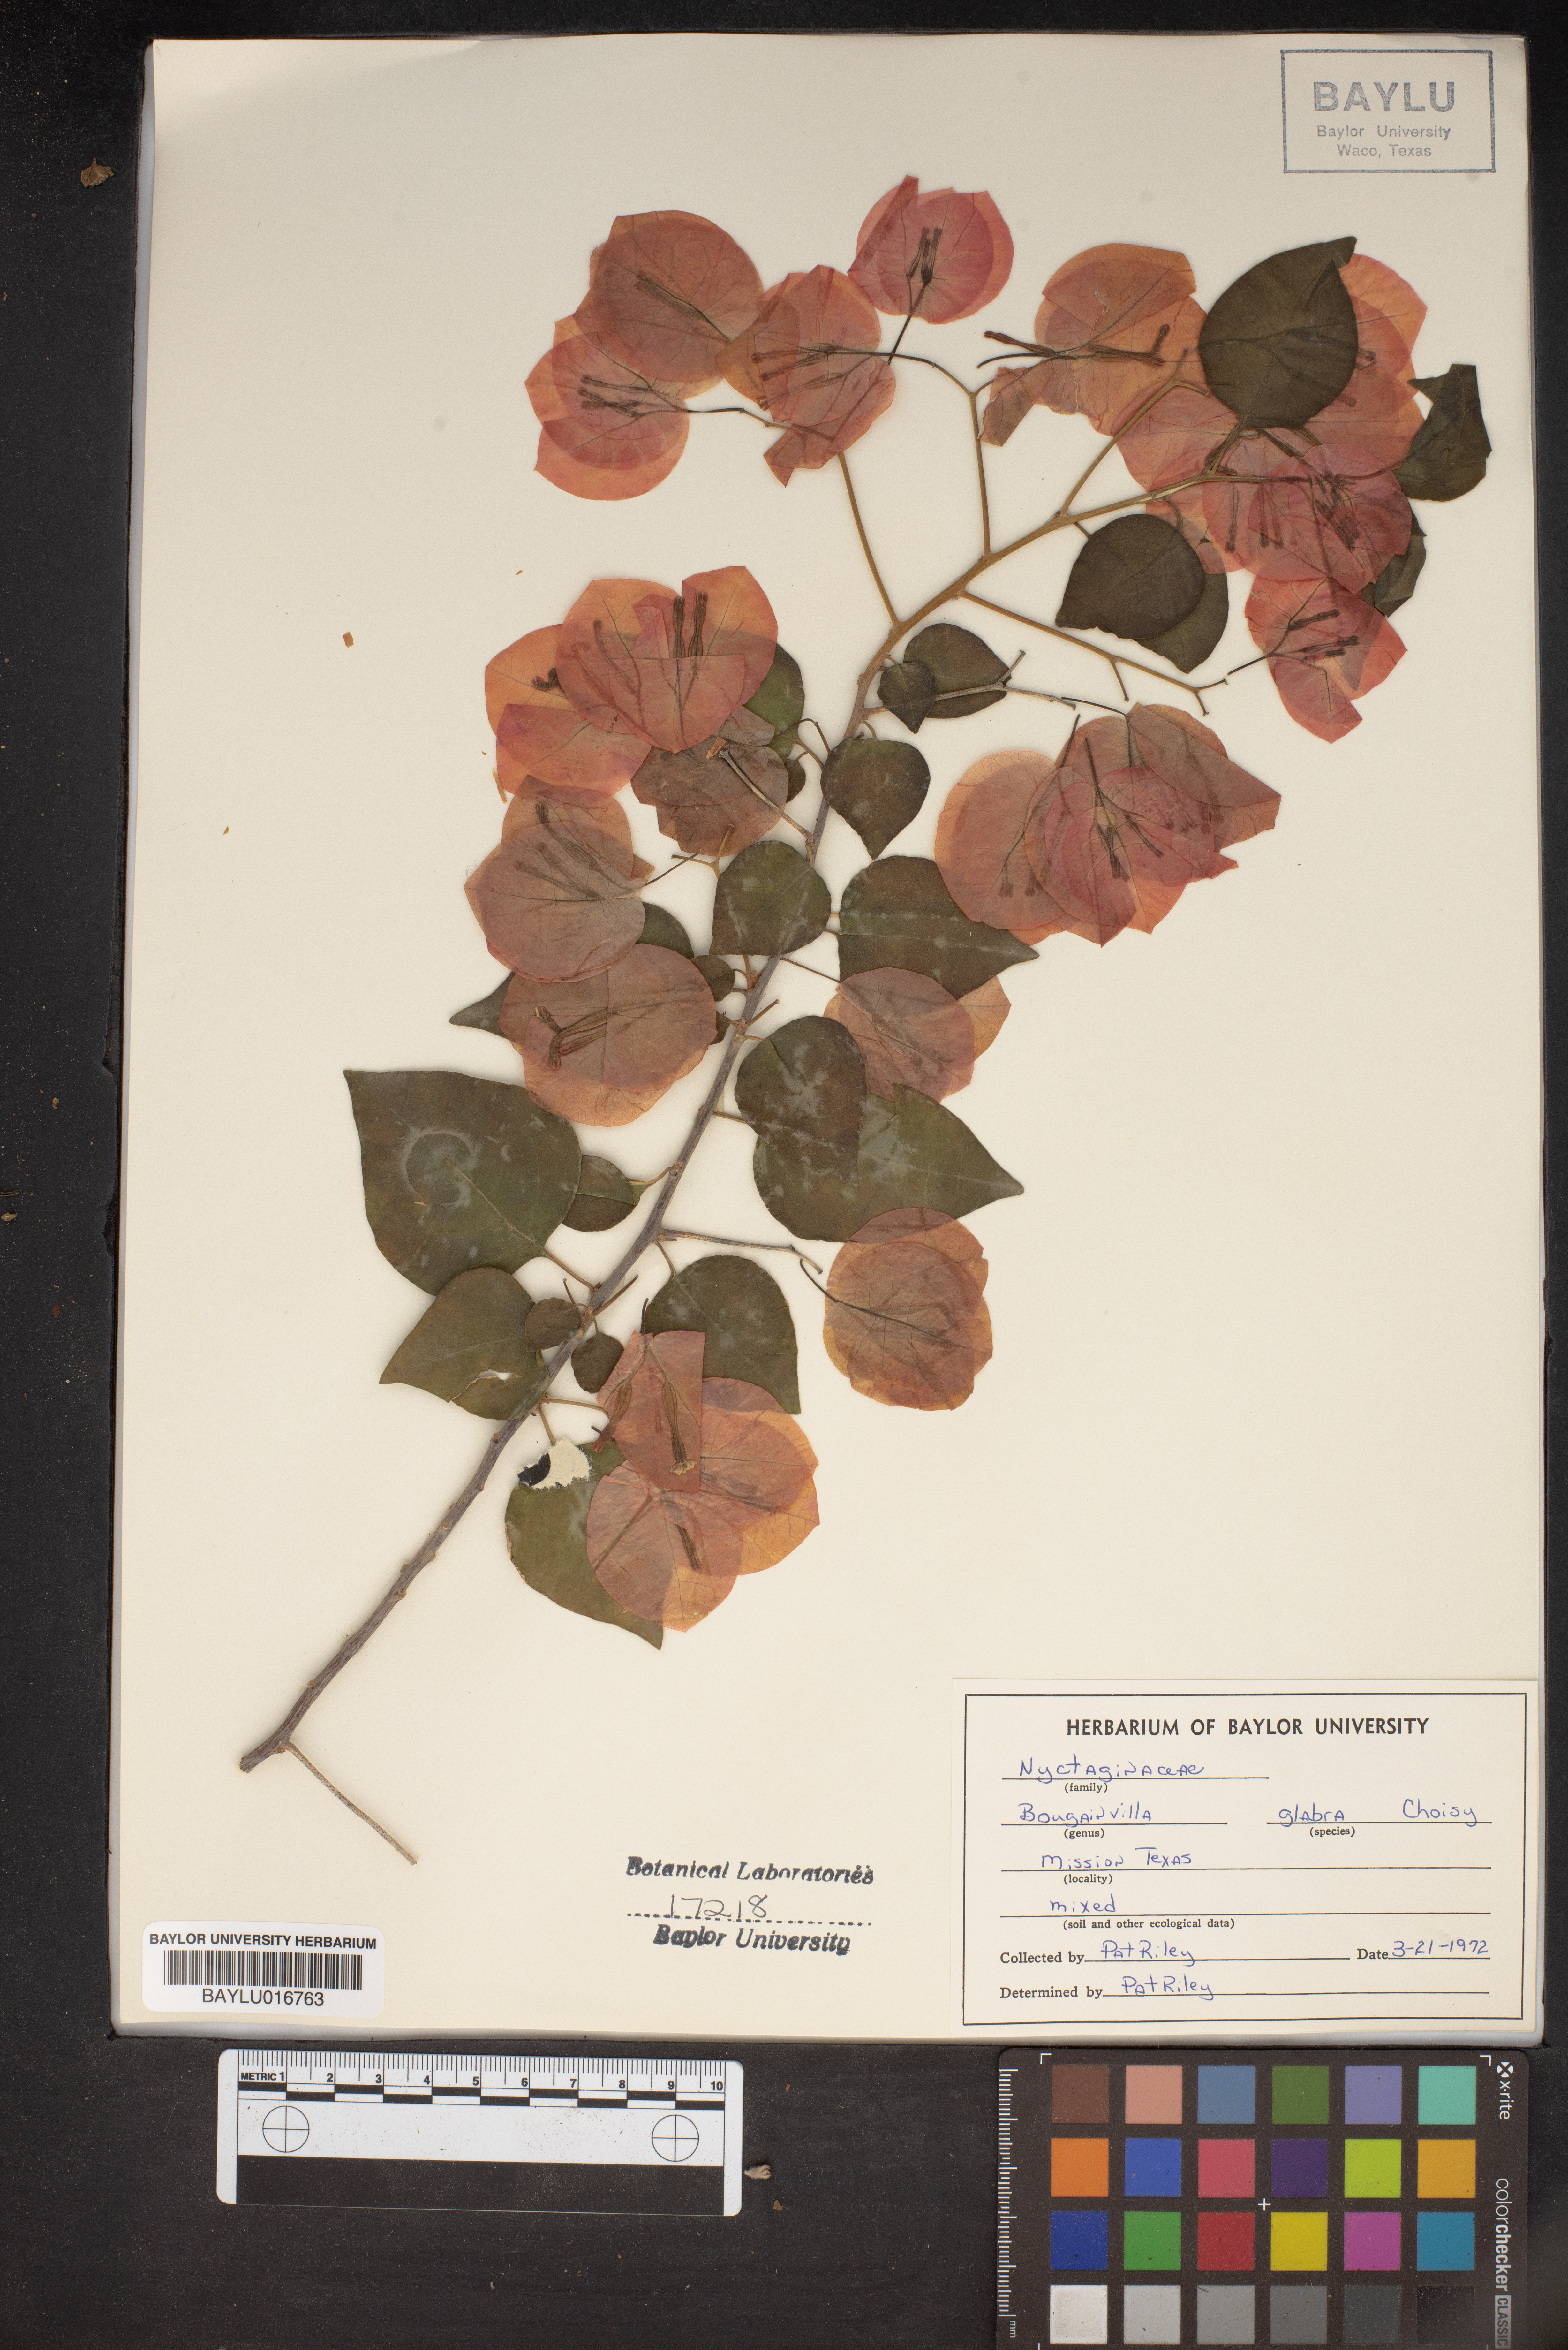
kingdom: Plantae
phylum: Tracheophyta
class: Magnoliopsida
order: Caryophyllales
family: Nyctaginaceae
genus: Bougainvillea
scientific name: Bougainvillea glabra
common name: Paperflower
